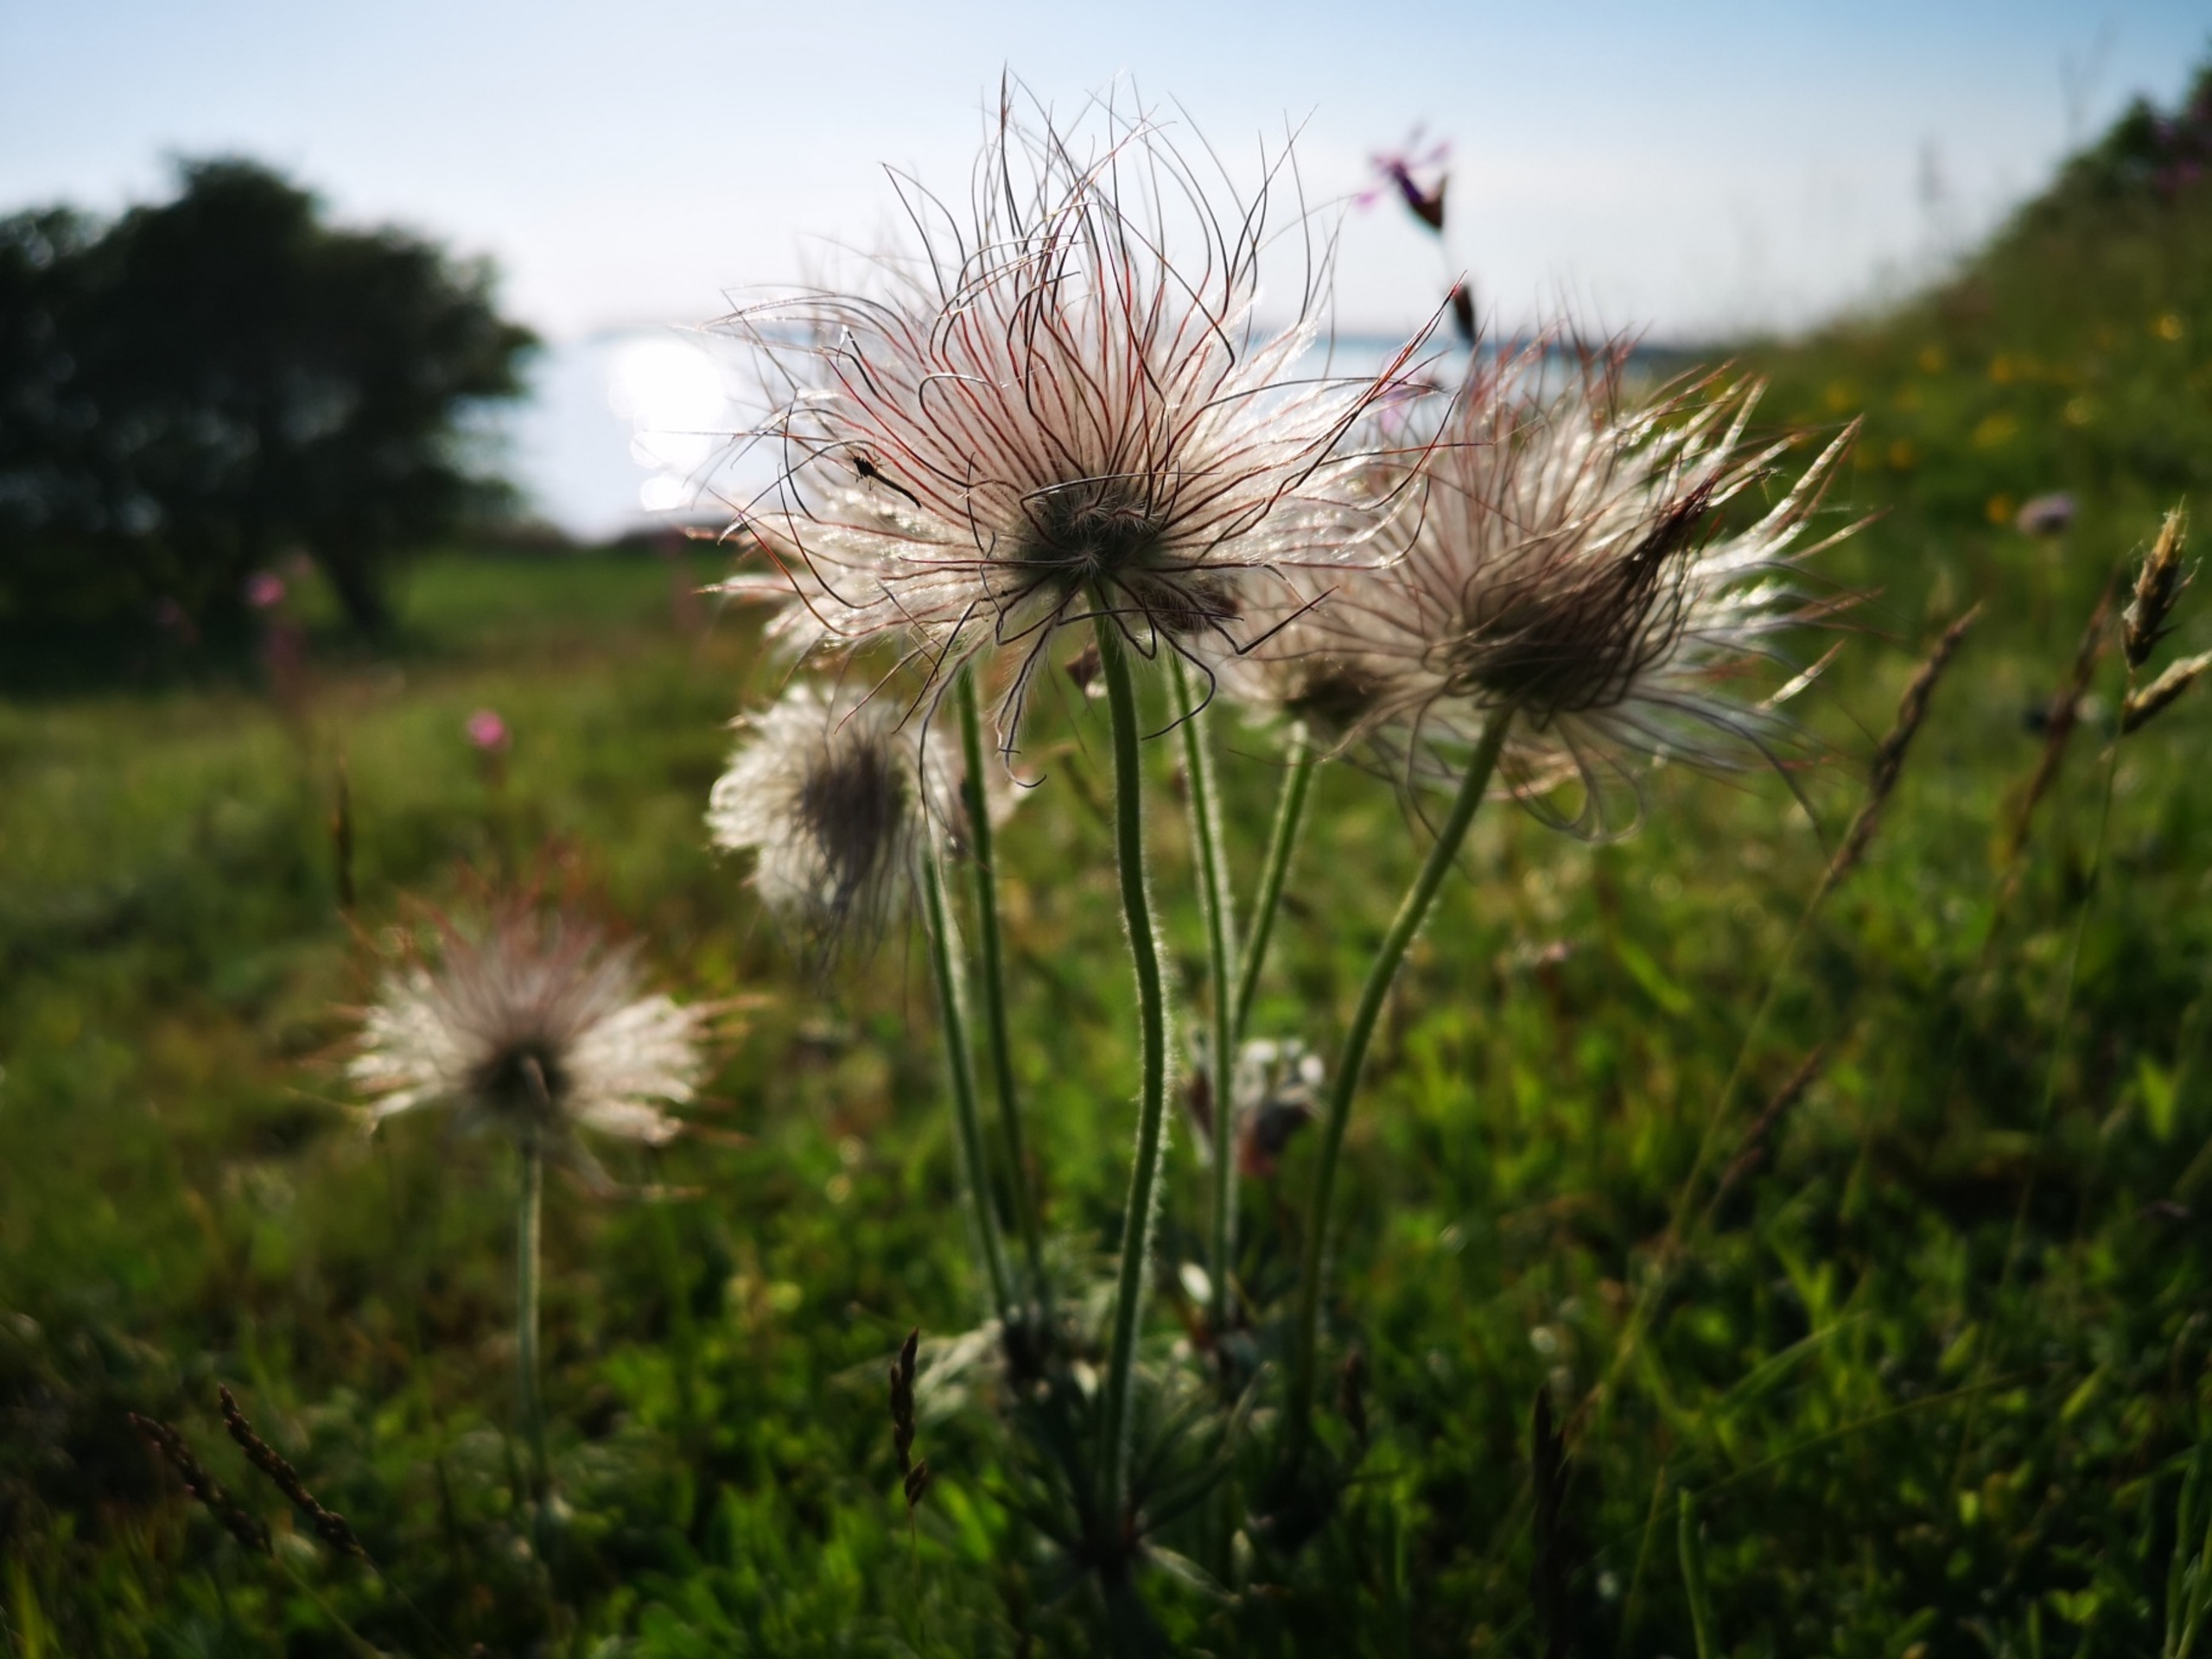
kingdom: Plantae
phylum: Tracheophyta
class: Magnoliopsida
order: Ranunculales
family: Ranunculaceae
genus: Pulsatilla
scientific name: Pulsatilla pratensis
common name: Nikkende kobjælde
